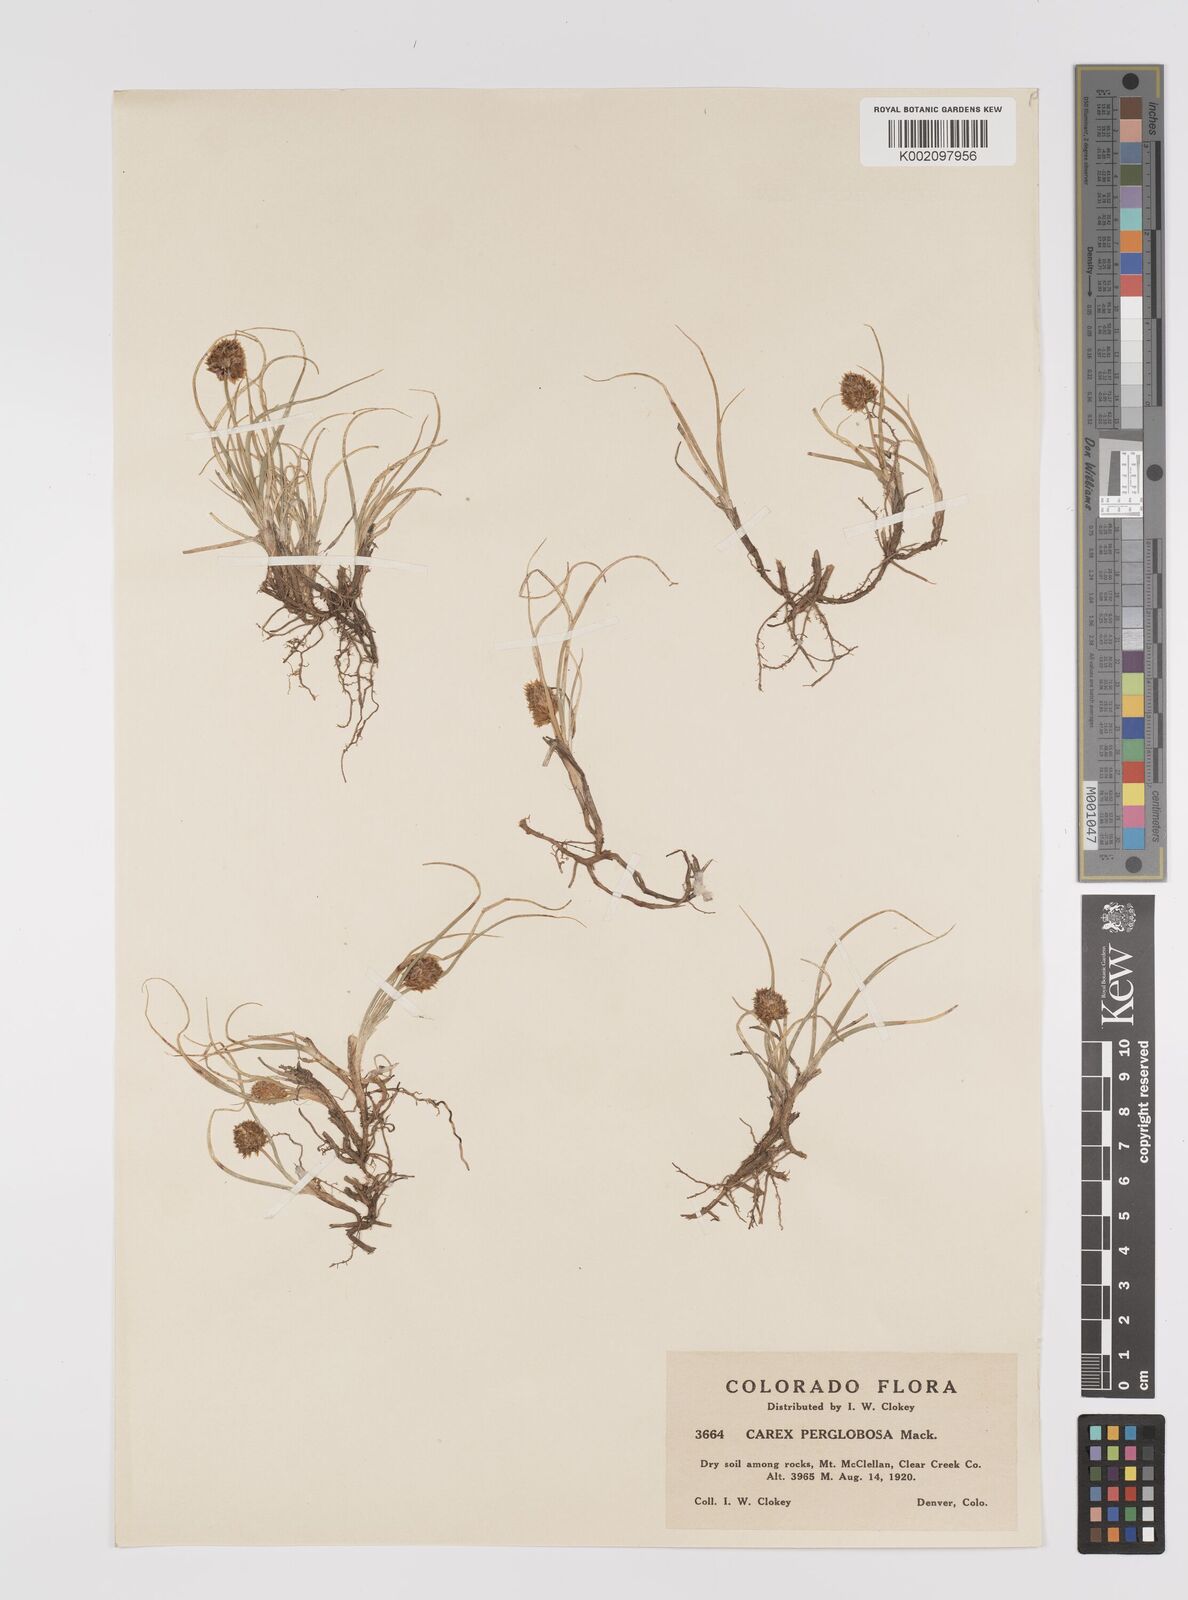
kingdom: Plantae
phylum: Tracheophyta
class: Liliopsida
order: Poales
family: Cyperaceae
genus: Carex
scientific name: Carex perglobosa
